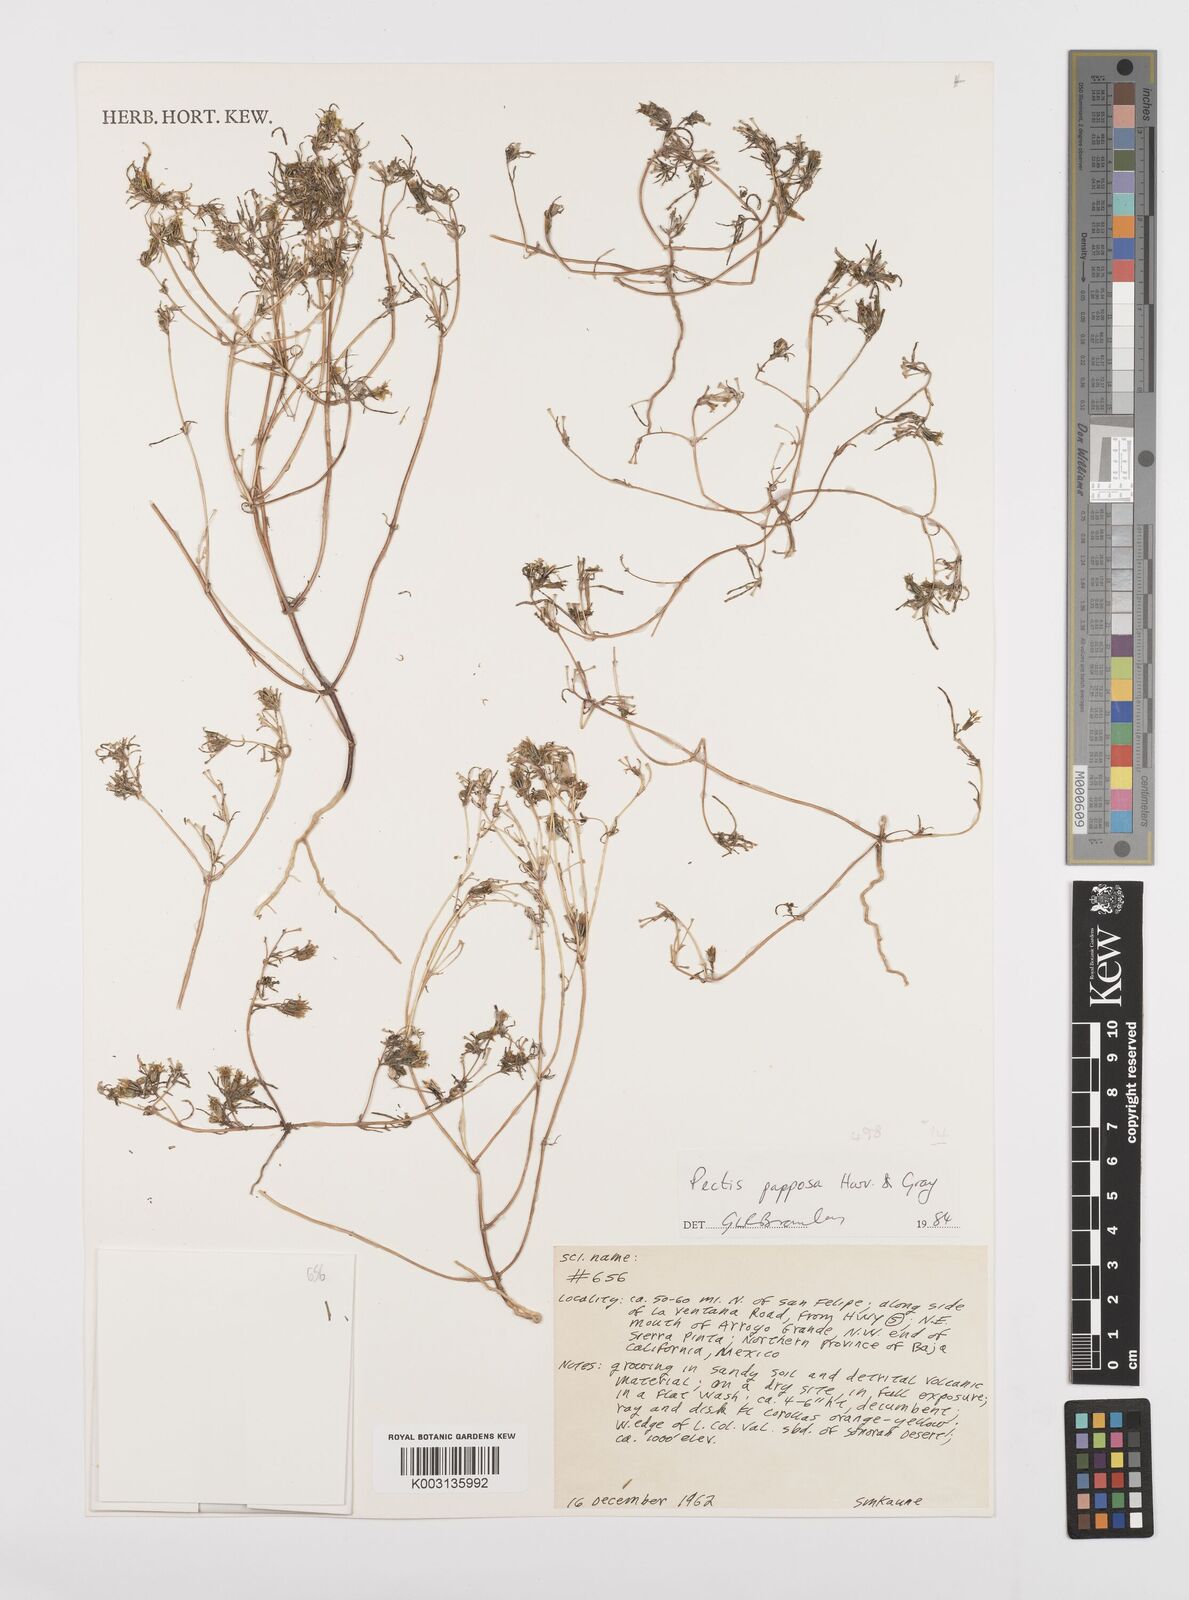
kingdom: Plantae
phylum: Tracheophyta
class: Magnoliopsida
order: Asterales
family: Asteraceae
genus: Pectis
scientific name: Pectis papposa
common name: Many-bristle chinchweed
